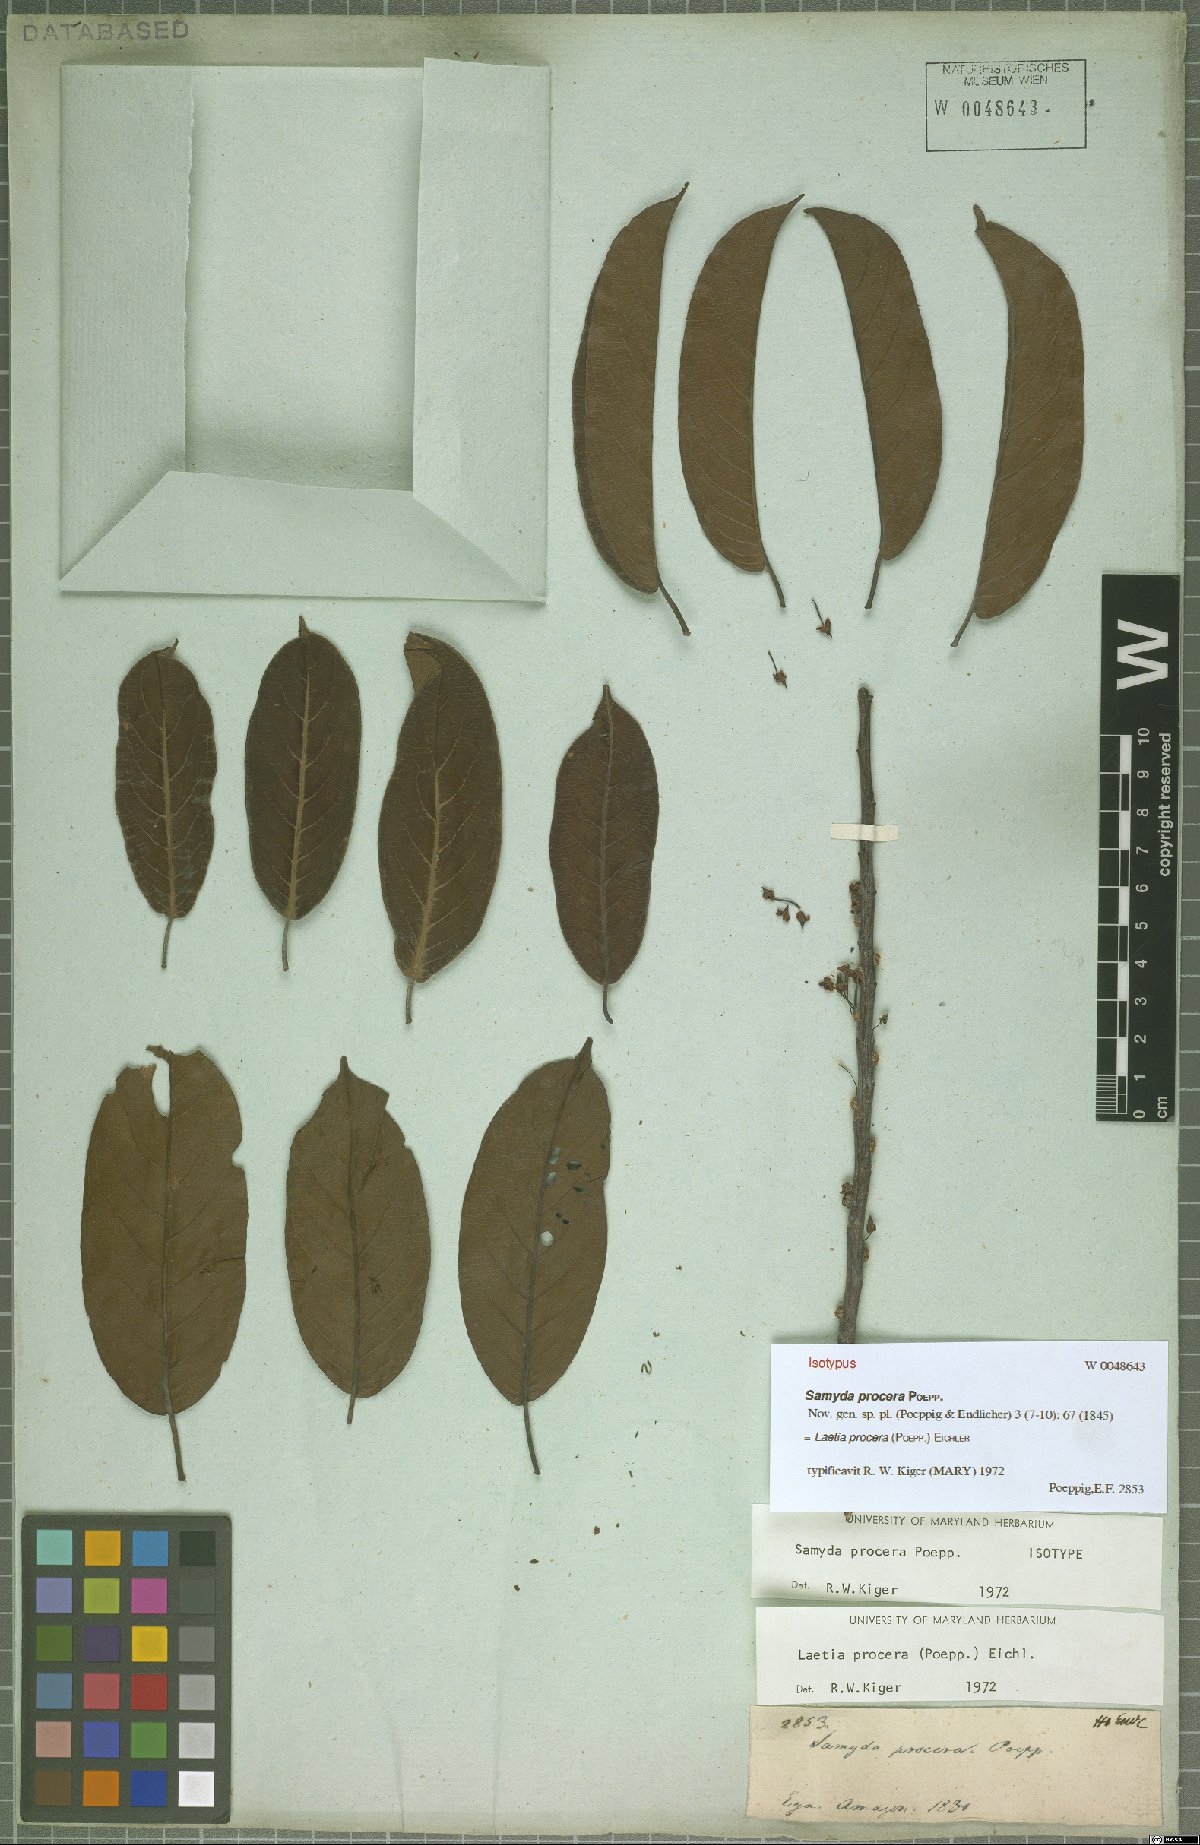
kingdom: Plantae
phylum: Tracheophyta
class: Magnoliopsida
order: Malpighiales
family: Salicaceae
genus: Casearia
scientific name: Casearia bicolor
